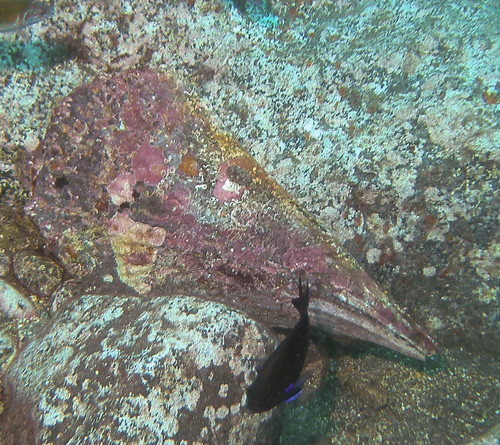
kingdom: Animalia
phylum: Mollusca
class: Bivalvia
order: Ostreida
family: Pinnidae
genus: Pinna
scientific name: Pinna rudis
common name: Rough penshell
